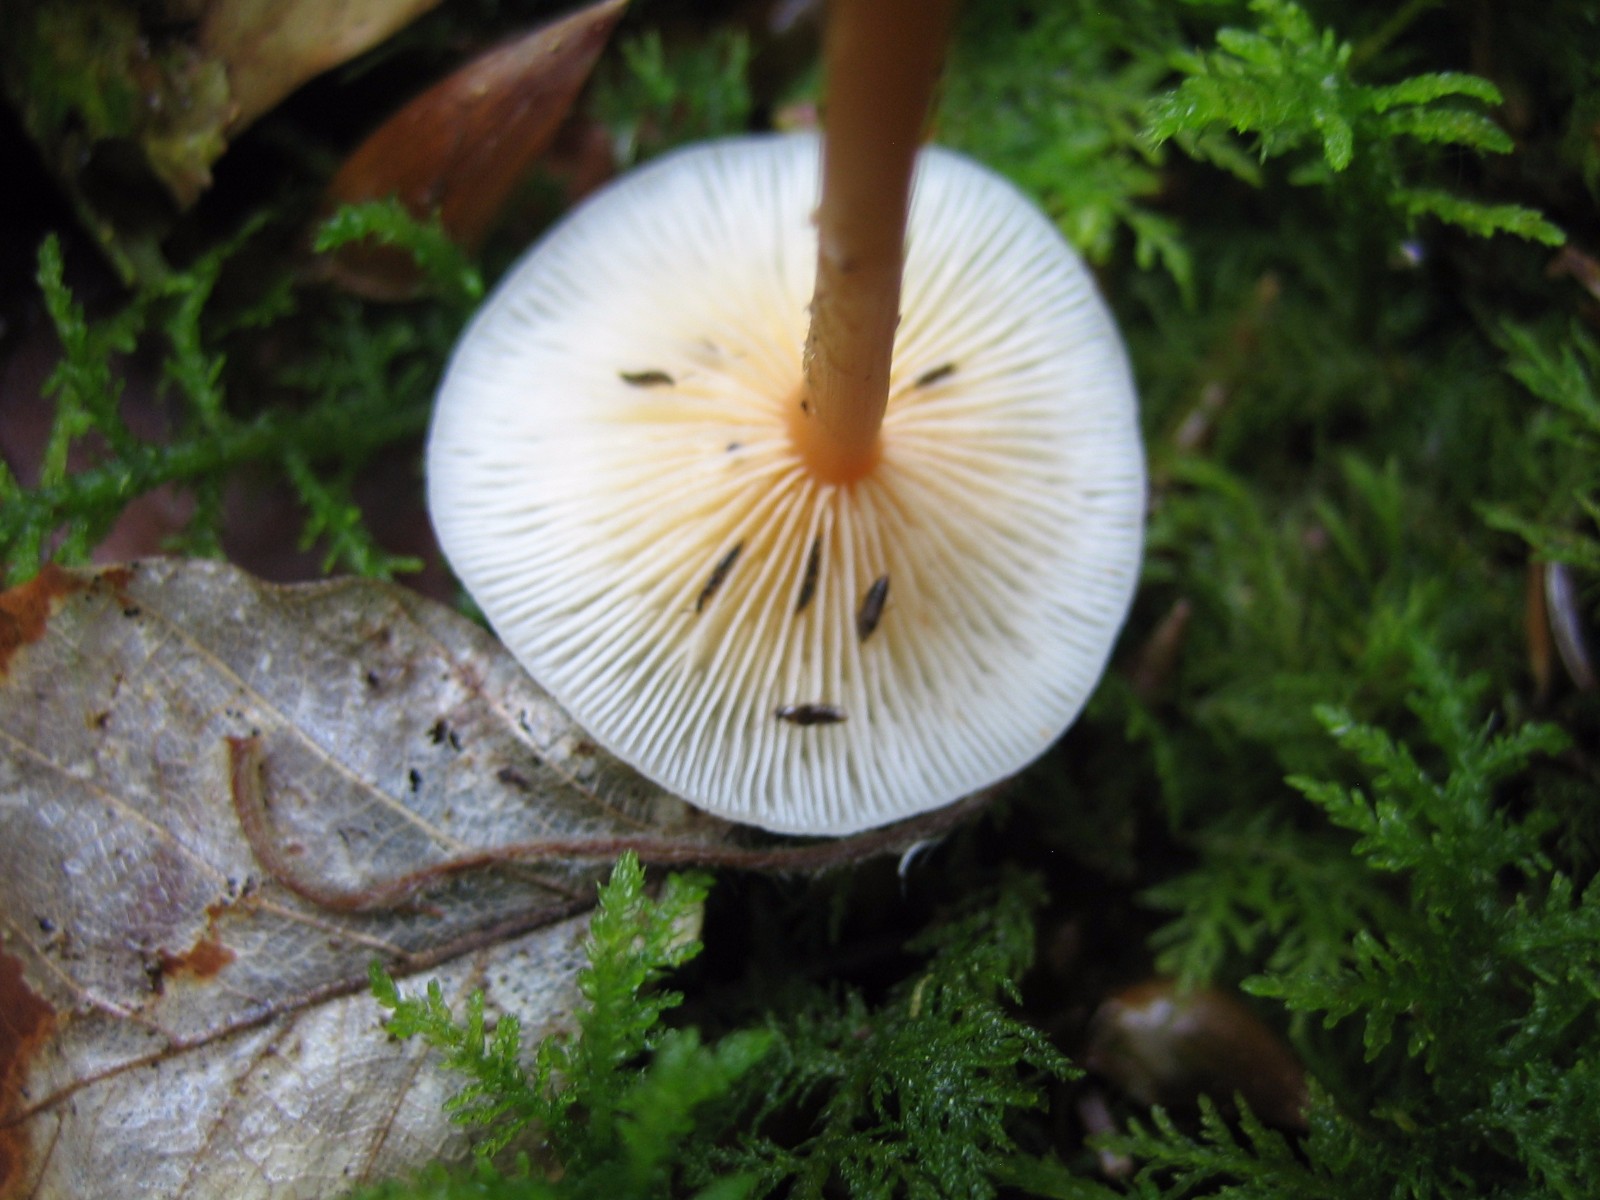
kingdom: Fungi
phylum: Basidiomycota
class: Agaricomycetes
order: Agaricales
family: Omphalotaceae
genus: Gymnopus
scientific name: Gymnopus
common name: fladhat
